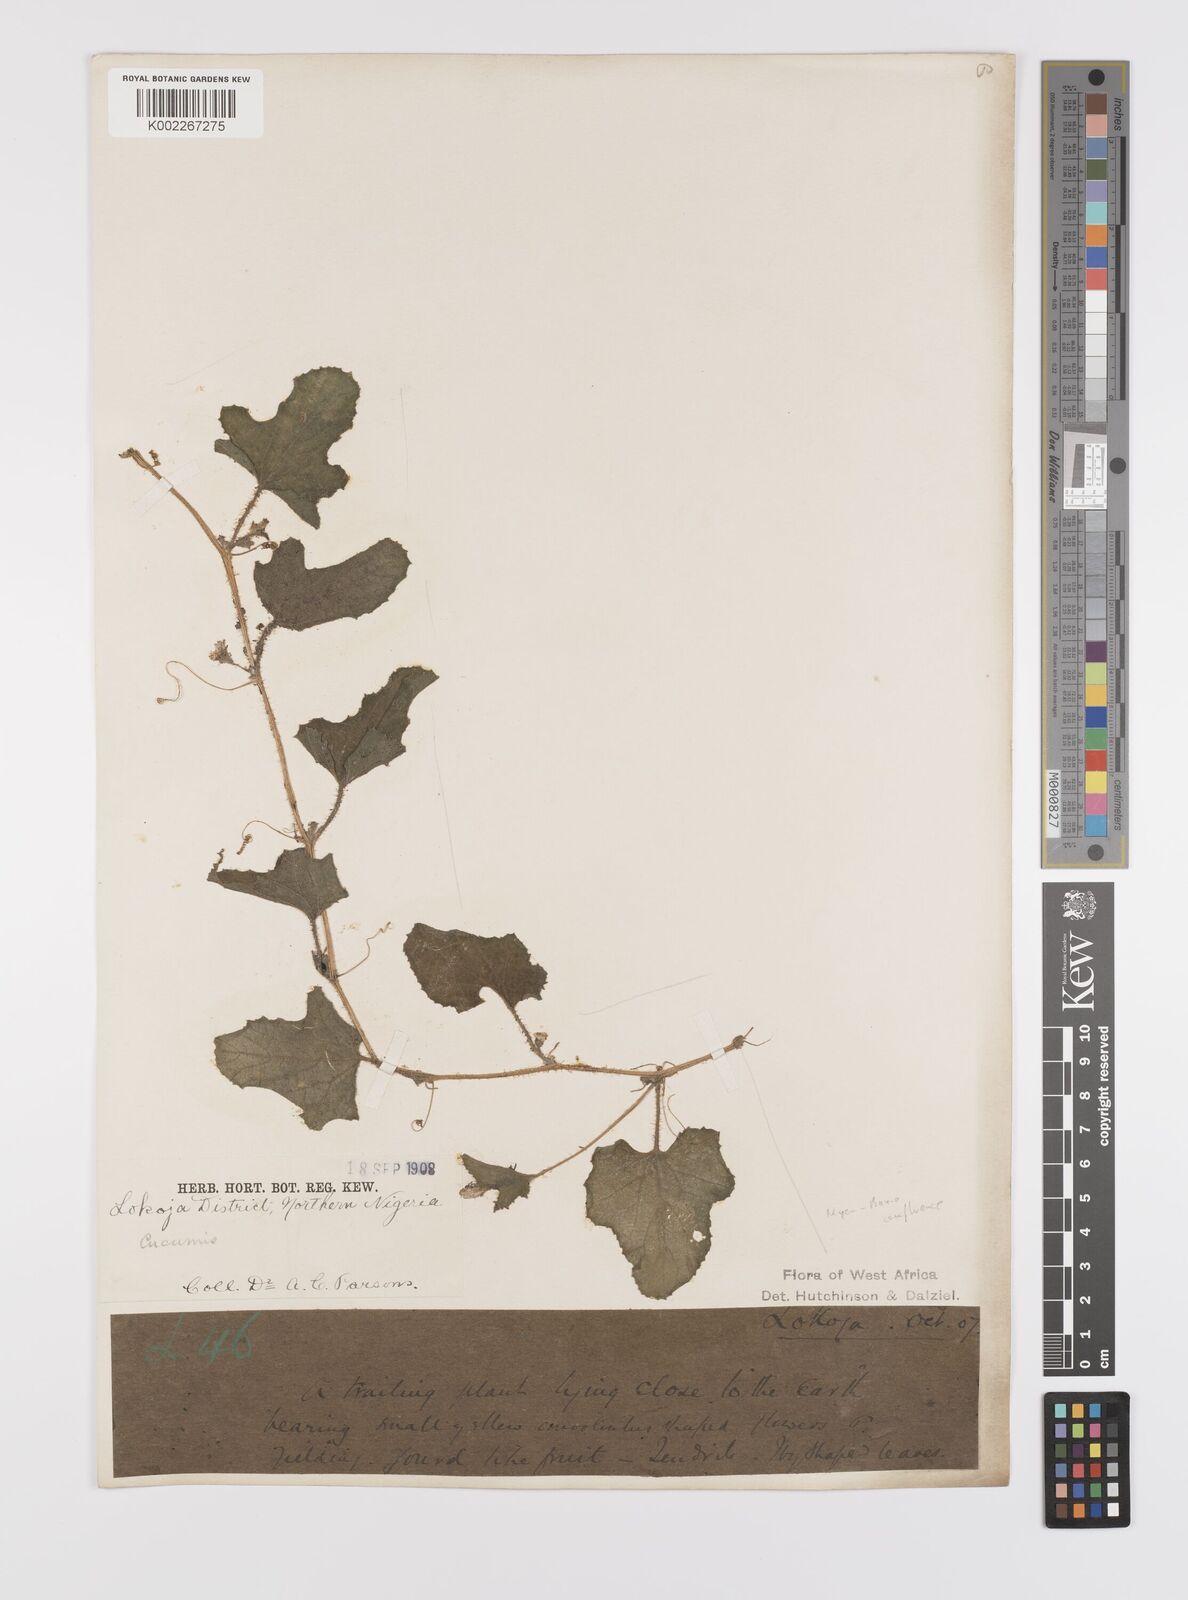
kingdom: Plantae
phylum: Tracheophyta
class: Magnoliopsida
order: Cucurbitales
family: Cucurbitaceae
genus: Cucumis
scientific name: Cucumis melo
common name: Melon
